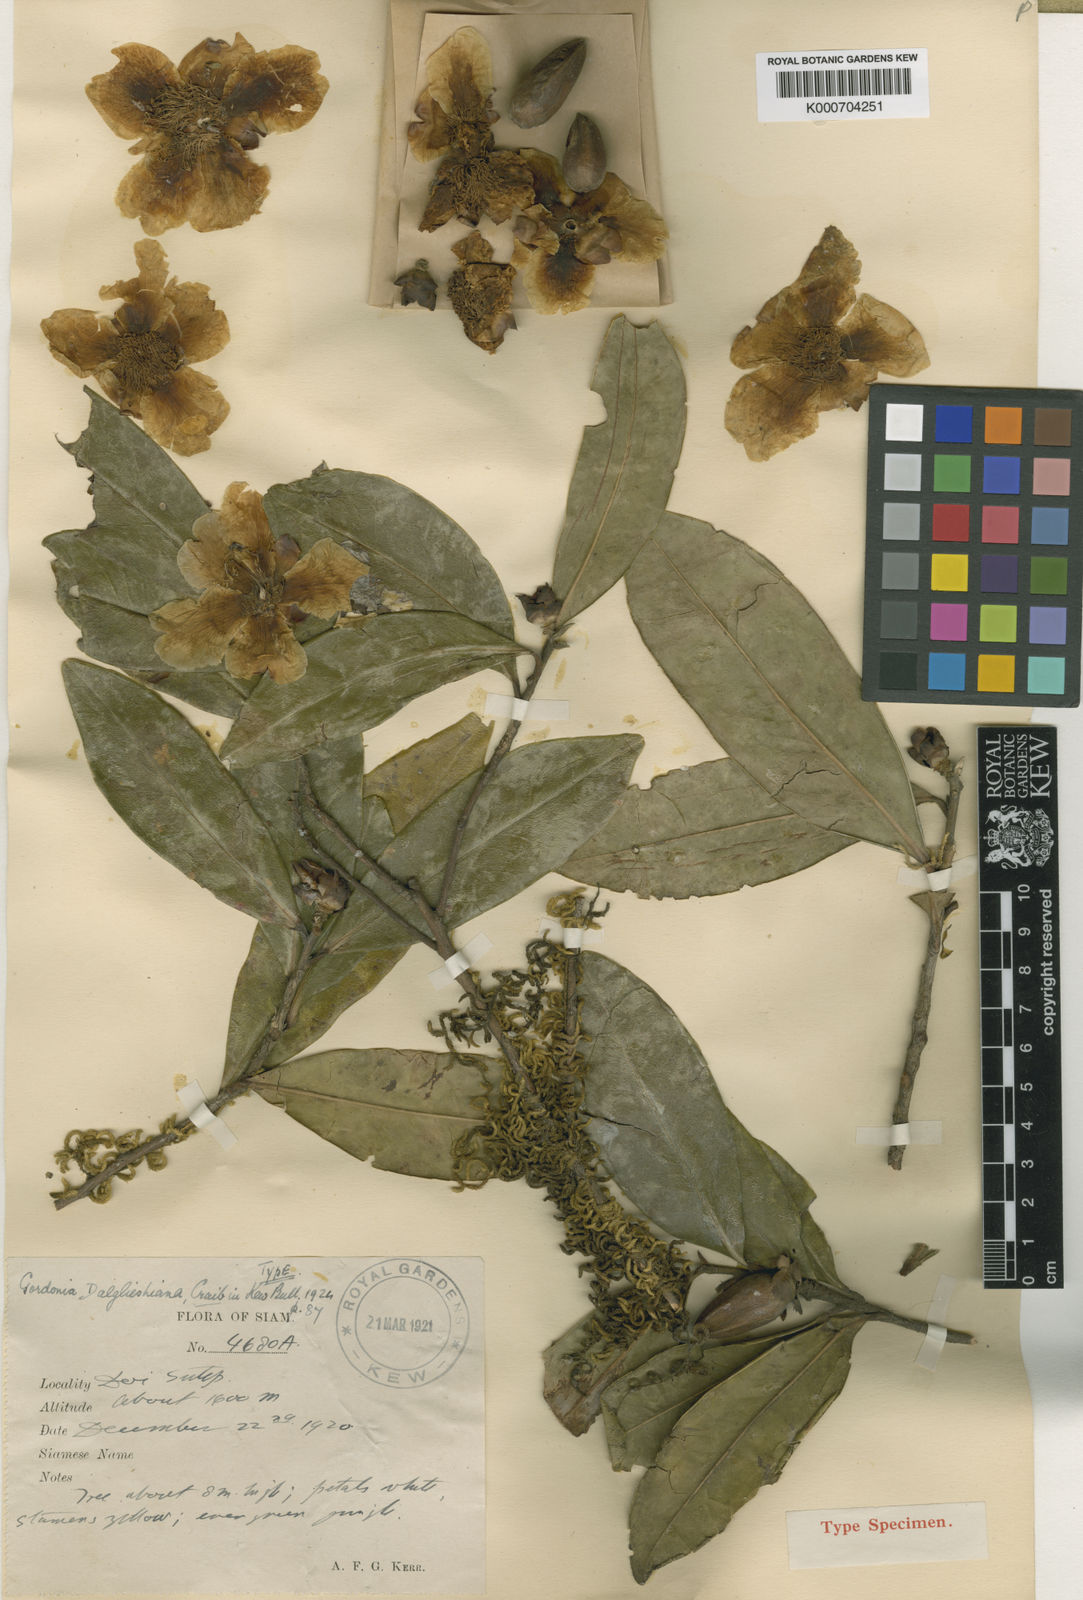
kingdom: Plantae
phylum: Tracheophyta
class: Magnoliopsida
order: Ericales
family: Theaceae
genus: Polyspora
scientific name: Polyspora dalglieshiana
